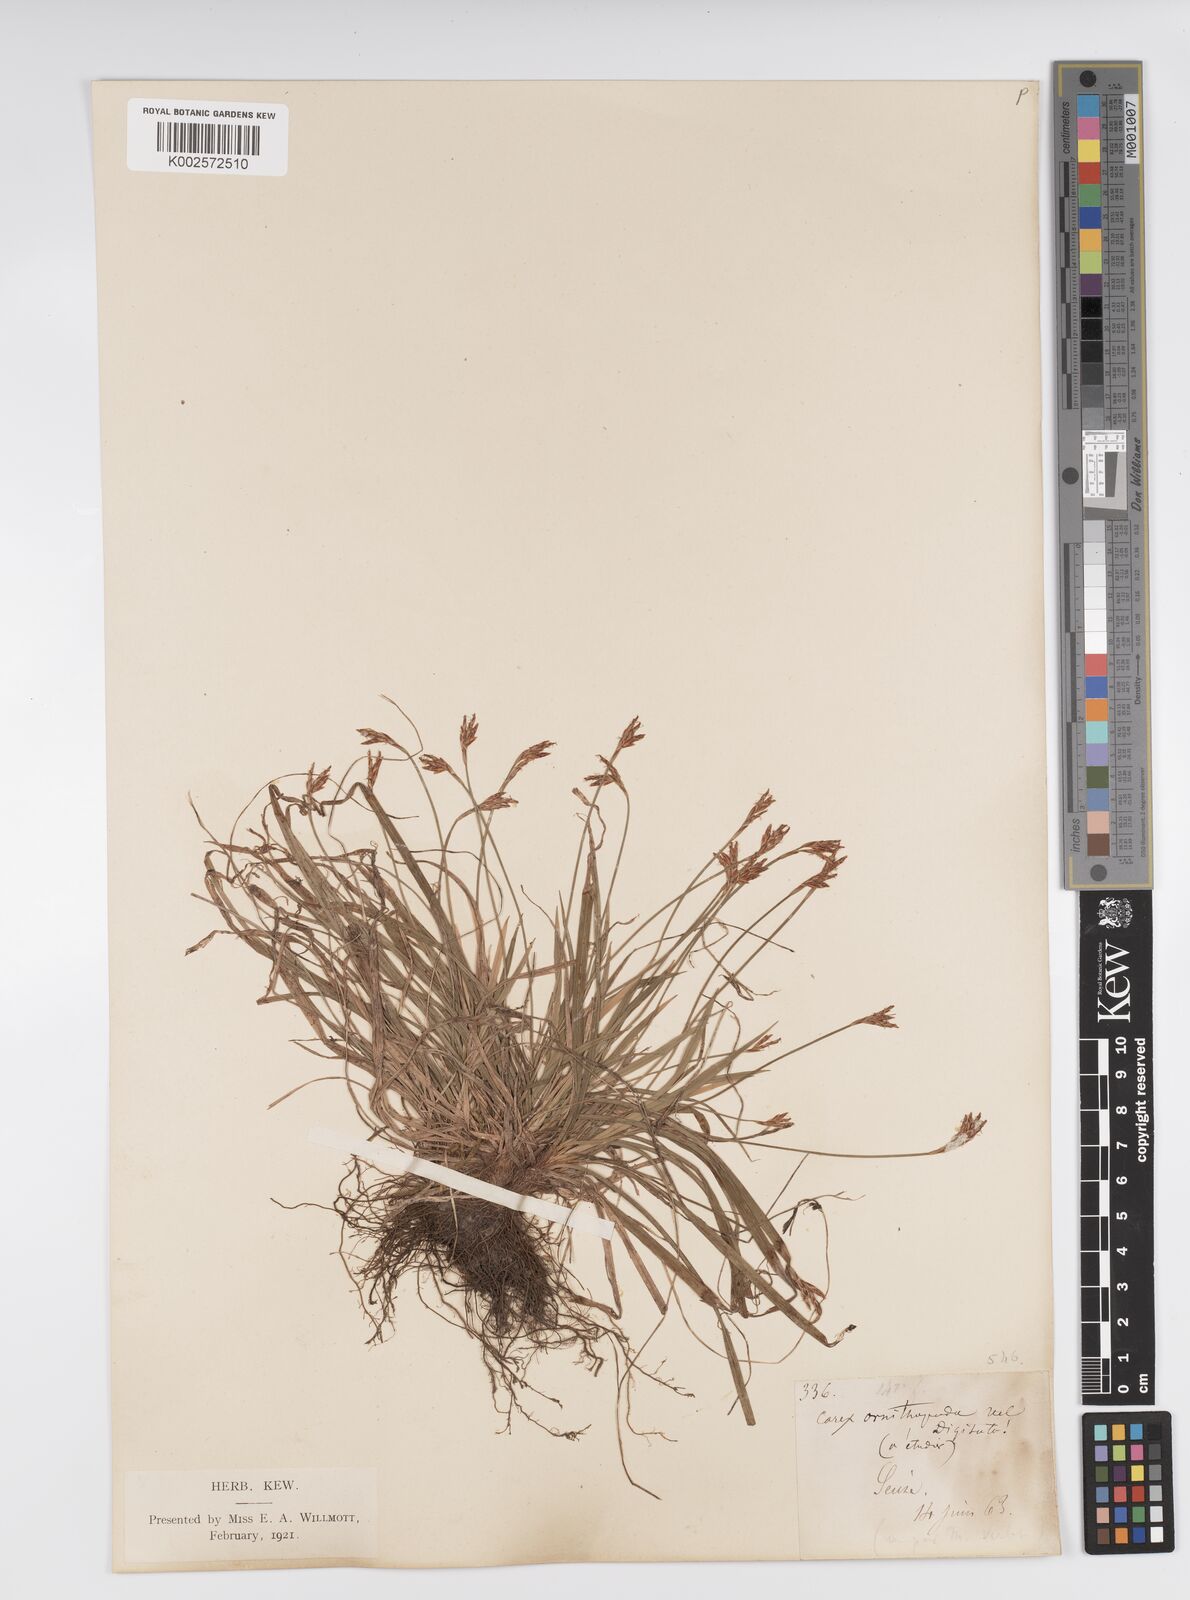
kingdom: Plantae
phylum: Tracheophyta
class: Liliopsida
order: Poales
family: Cyperaceae
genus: Carex
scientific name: Carex digitata
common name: Fingered sedge
